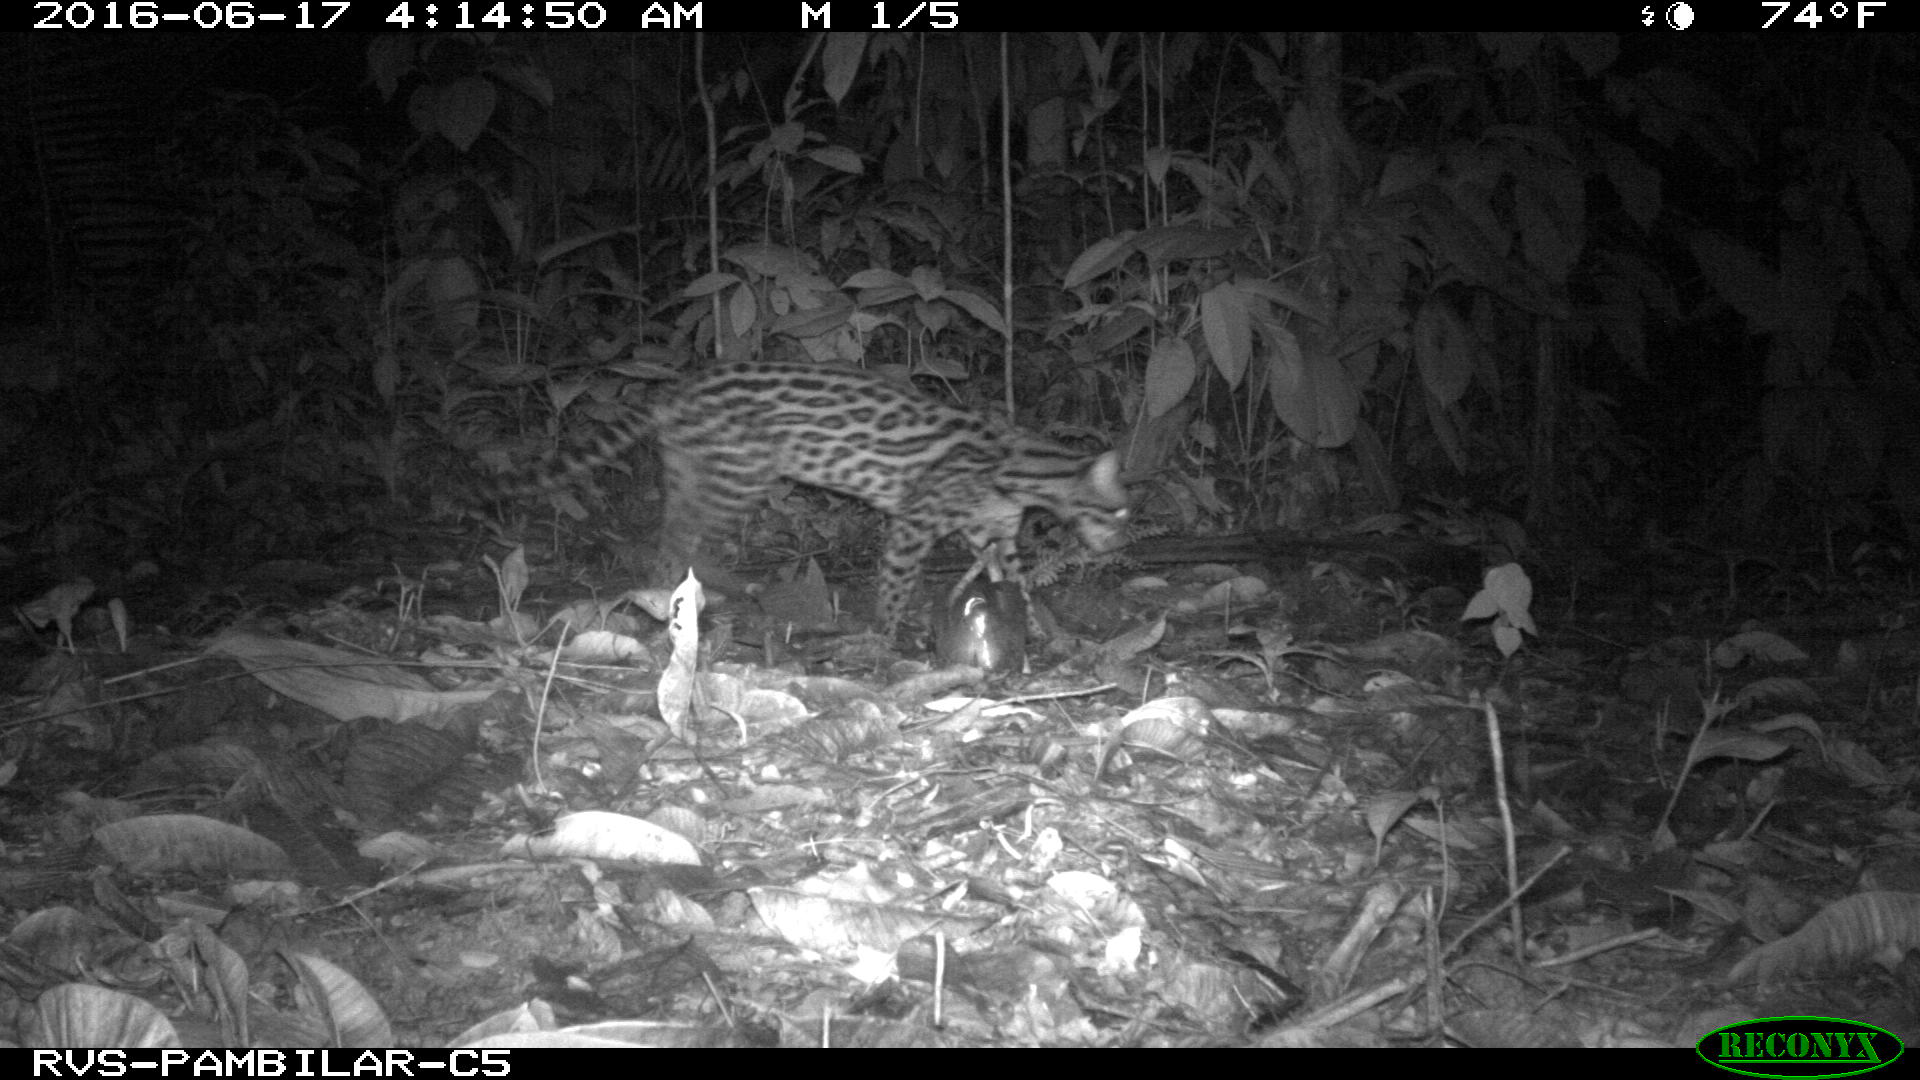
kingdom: Animalia
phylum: Chordata
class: Mammalia
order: Carnivora
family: Felidae
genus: Leopardus
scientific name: Leopardus pardalis
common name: Ocelot
